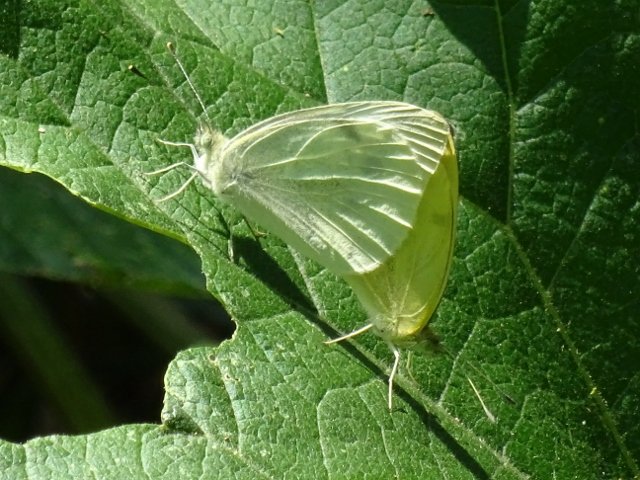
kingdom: Animalia
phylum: Arthropoda
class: Insecta
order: Lepidoptera
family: Pieridae
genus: Pieris
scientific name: Pieris rapae
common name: Cabbage White
